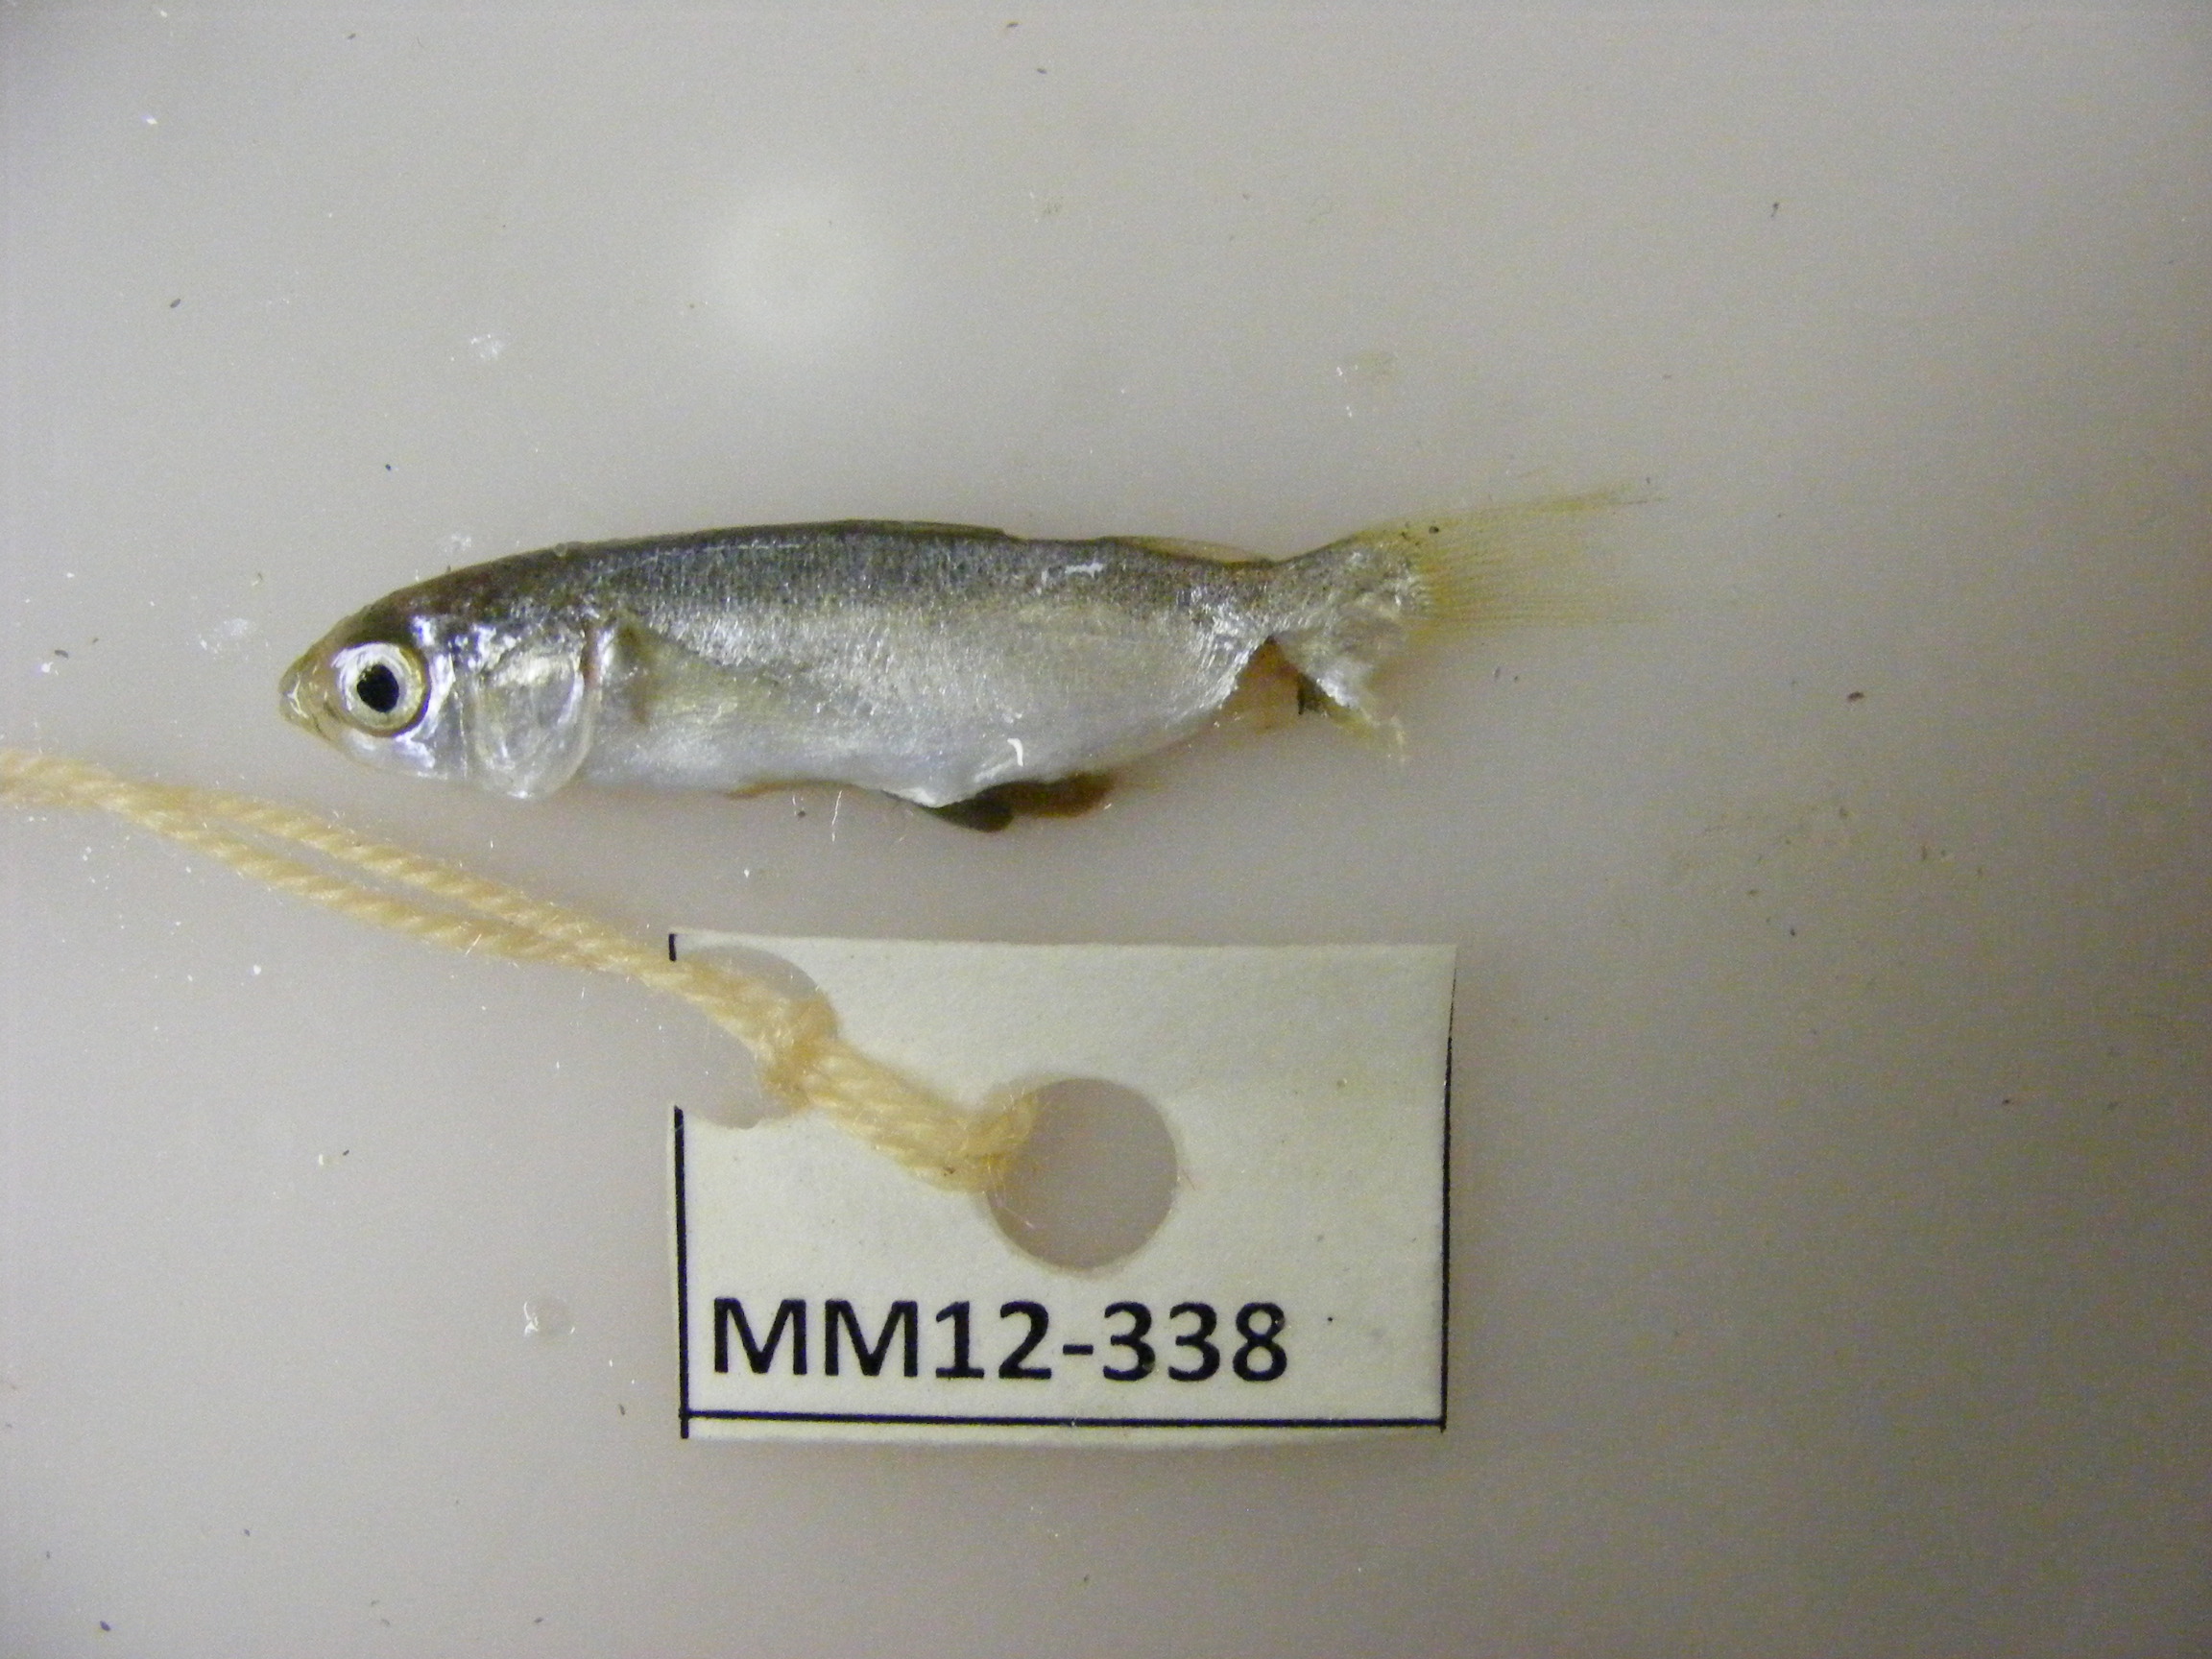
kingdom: Animalia
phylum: Chordata
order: Perciformes
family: Mullidae
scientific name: Mullidae
